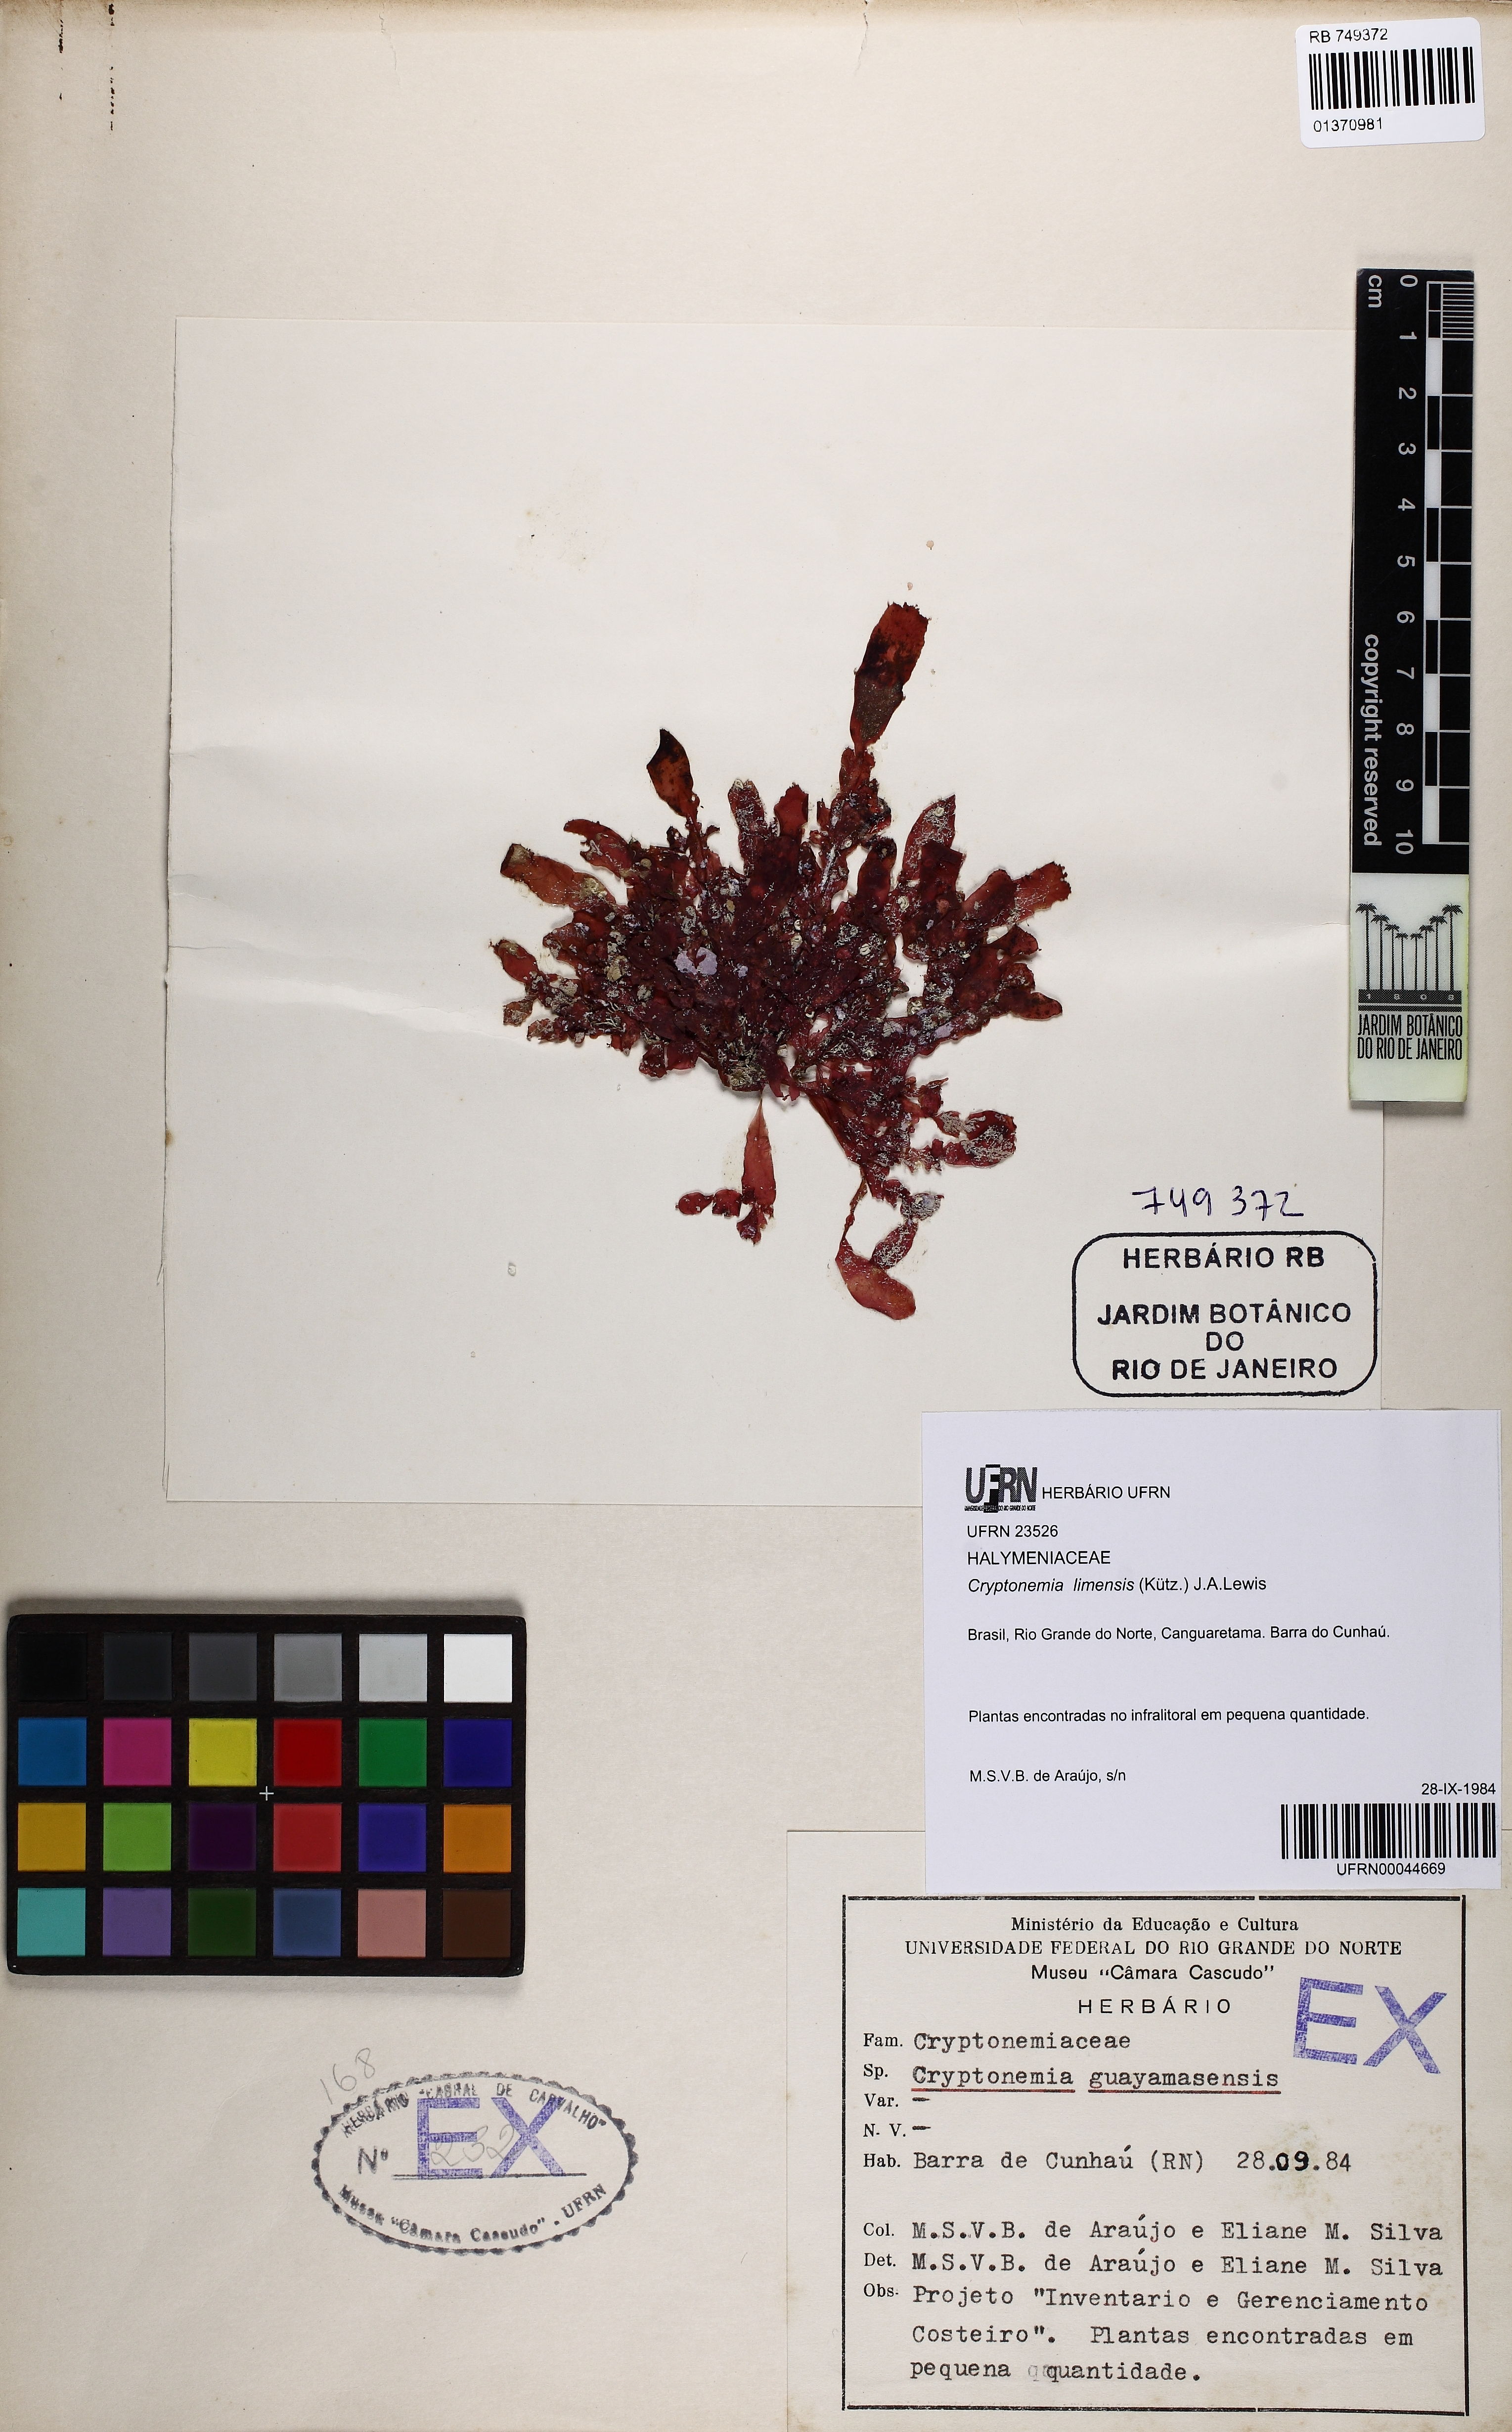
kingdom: Plantae
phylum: Rhodophyta
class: Florideophyceae
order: Halymeniales
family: Halymeniaceae
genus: Cryptonemia
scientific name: Cryptonemia limensis
